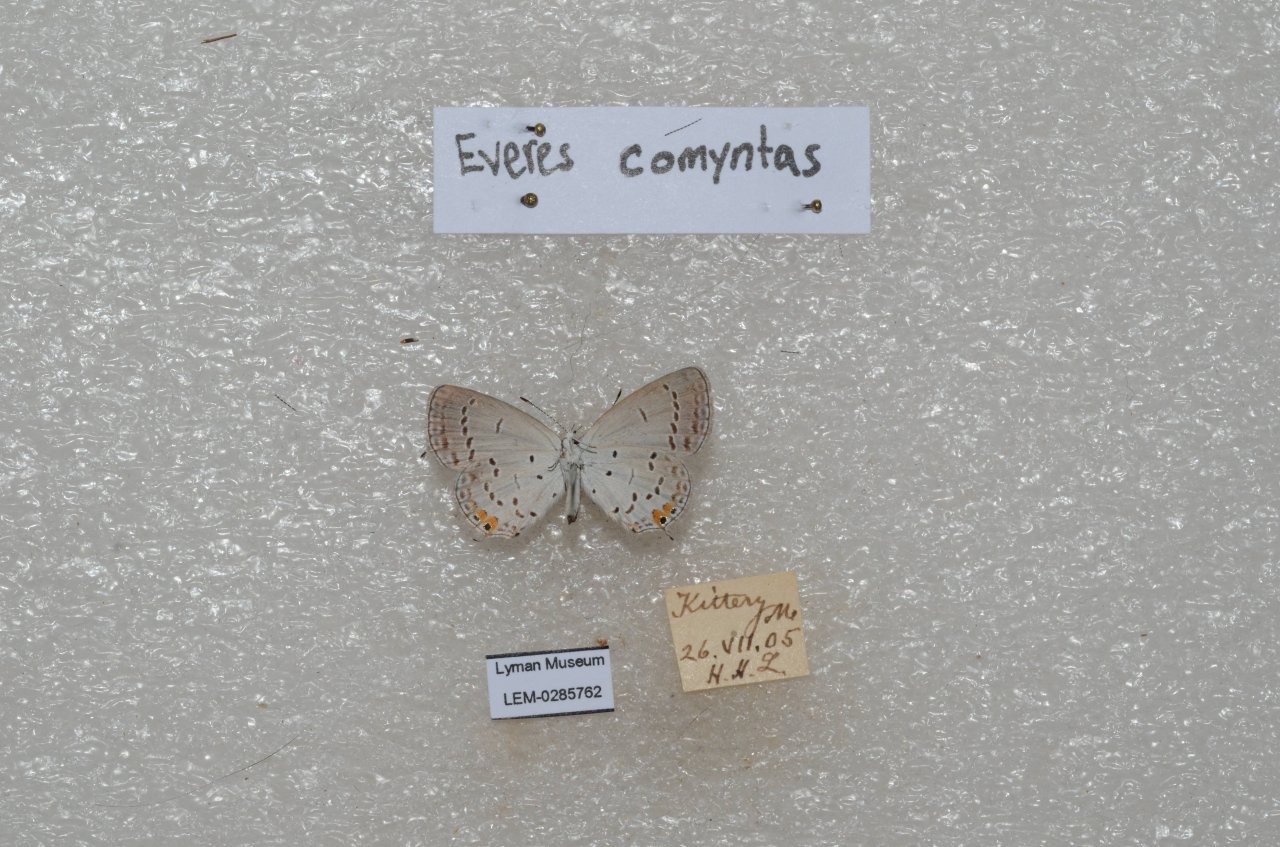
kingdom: Animalia
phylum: Arthropoda
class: Insecta
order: Lepidoptera
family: Lycaenidae
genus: Elkalyce
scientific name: Elkalyce comyntas
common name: Eastern Tailed-Blue
